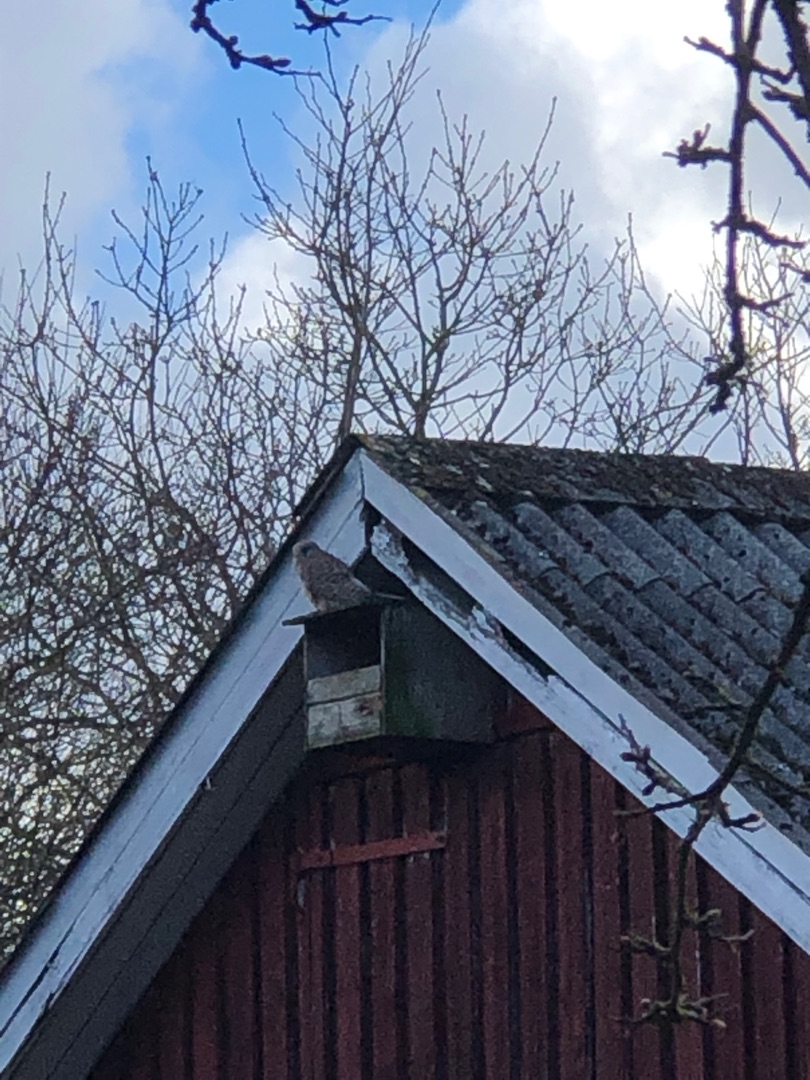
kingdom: Animalia
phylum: Chordata
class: Aves
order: Falconiformes
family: Falconidae
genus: Falco
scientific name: Falco tinnunculus
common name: Tårnfalk
